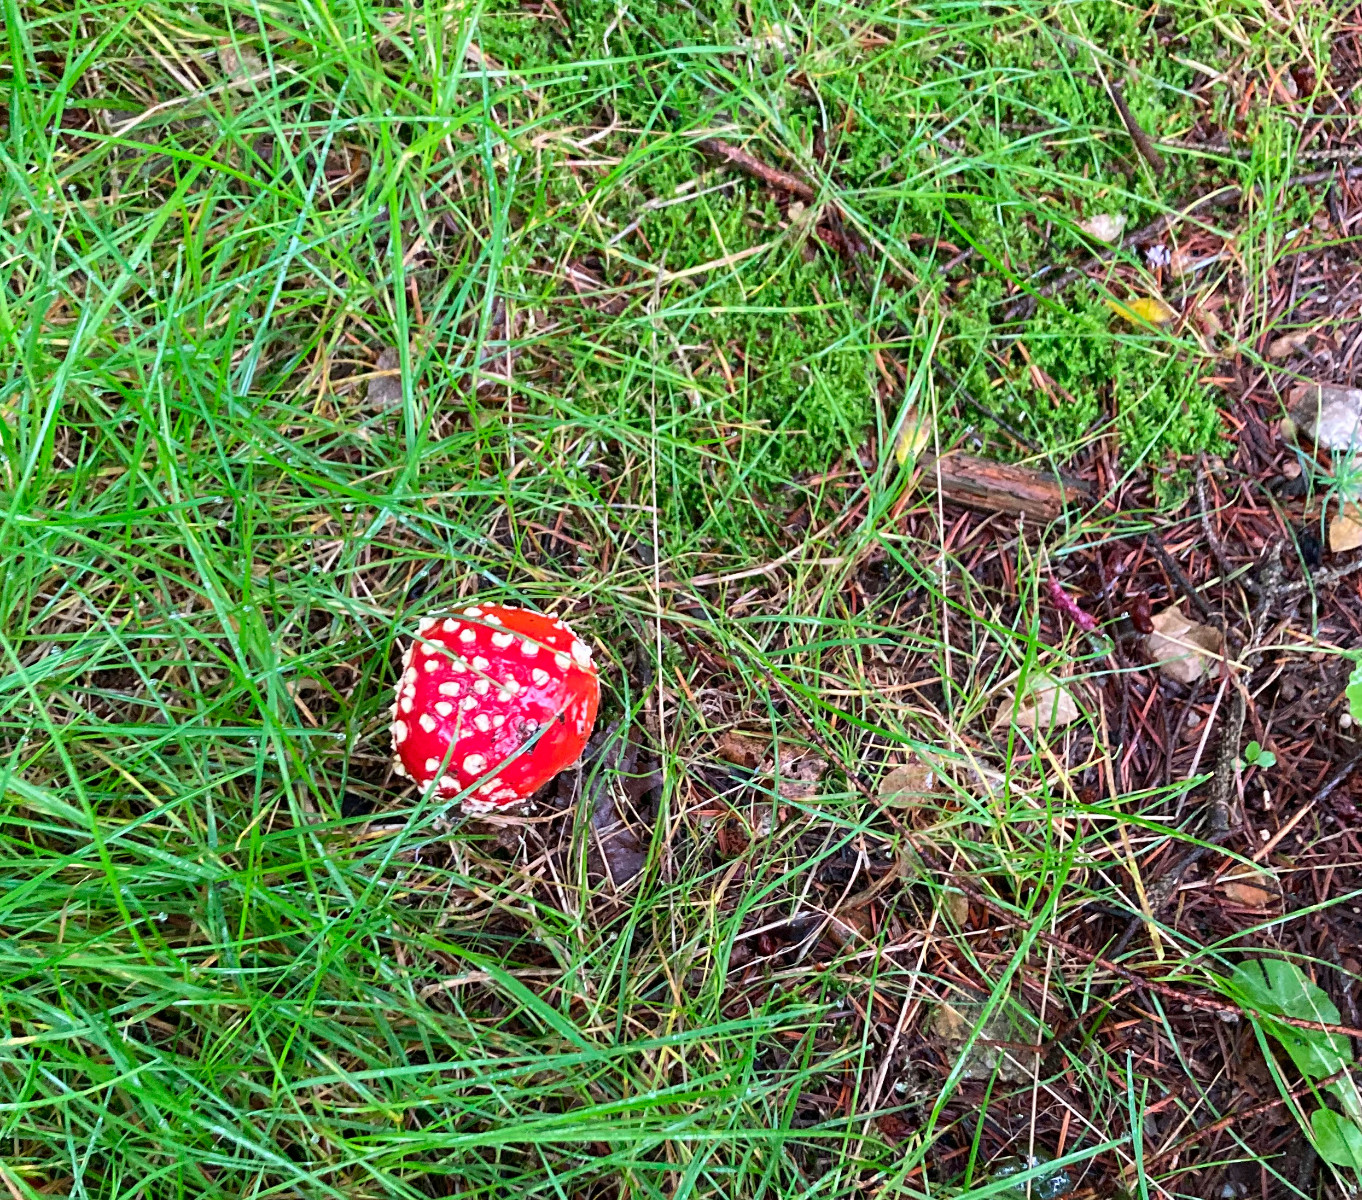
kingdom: Fungi
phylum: Basidiomycota
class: Agaricomycetes
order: Agaricales
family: Amanitaceae
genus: Amanita
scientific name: Amanita muscaria
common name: rød fluesvamp
